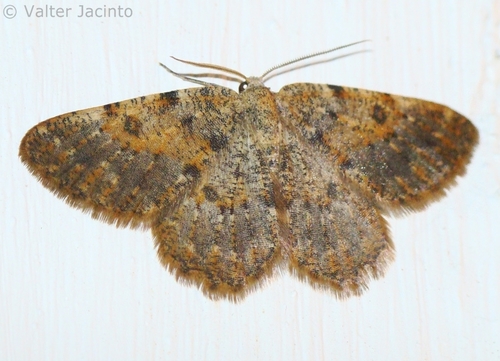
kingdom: Animalia
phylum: Arthropoda
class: Insecta
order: Lepidoptera
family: Geometridae
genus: Charissa
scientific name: Charissa mucidaria
